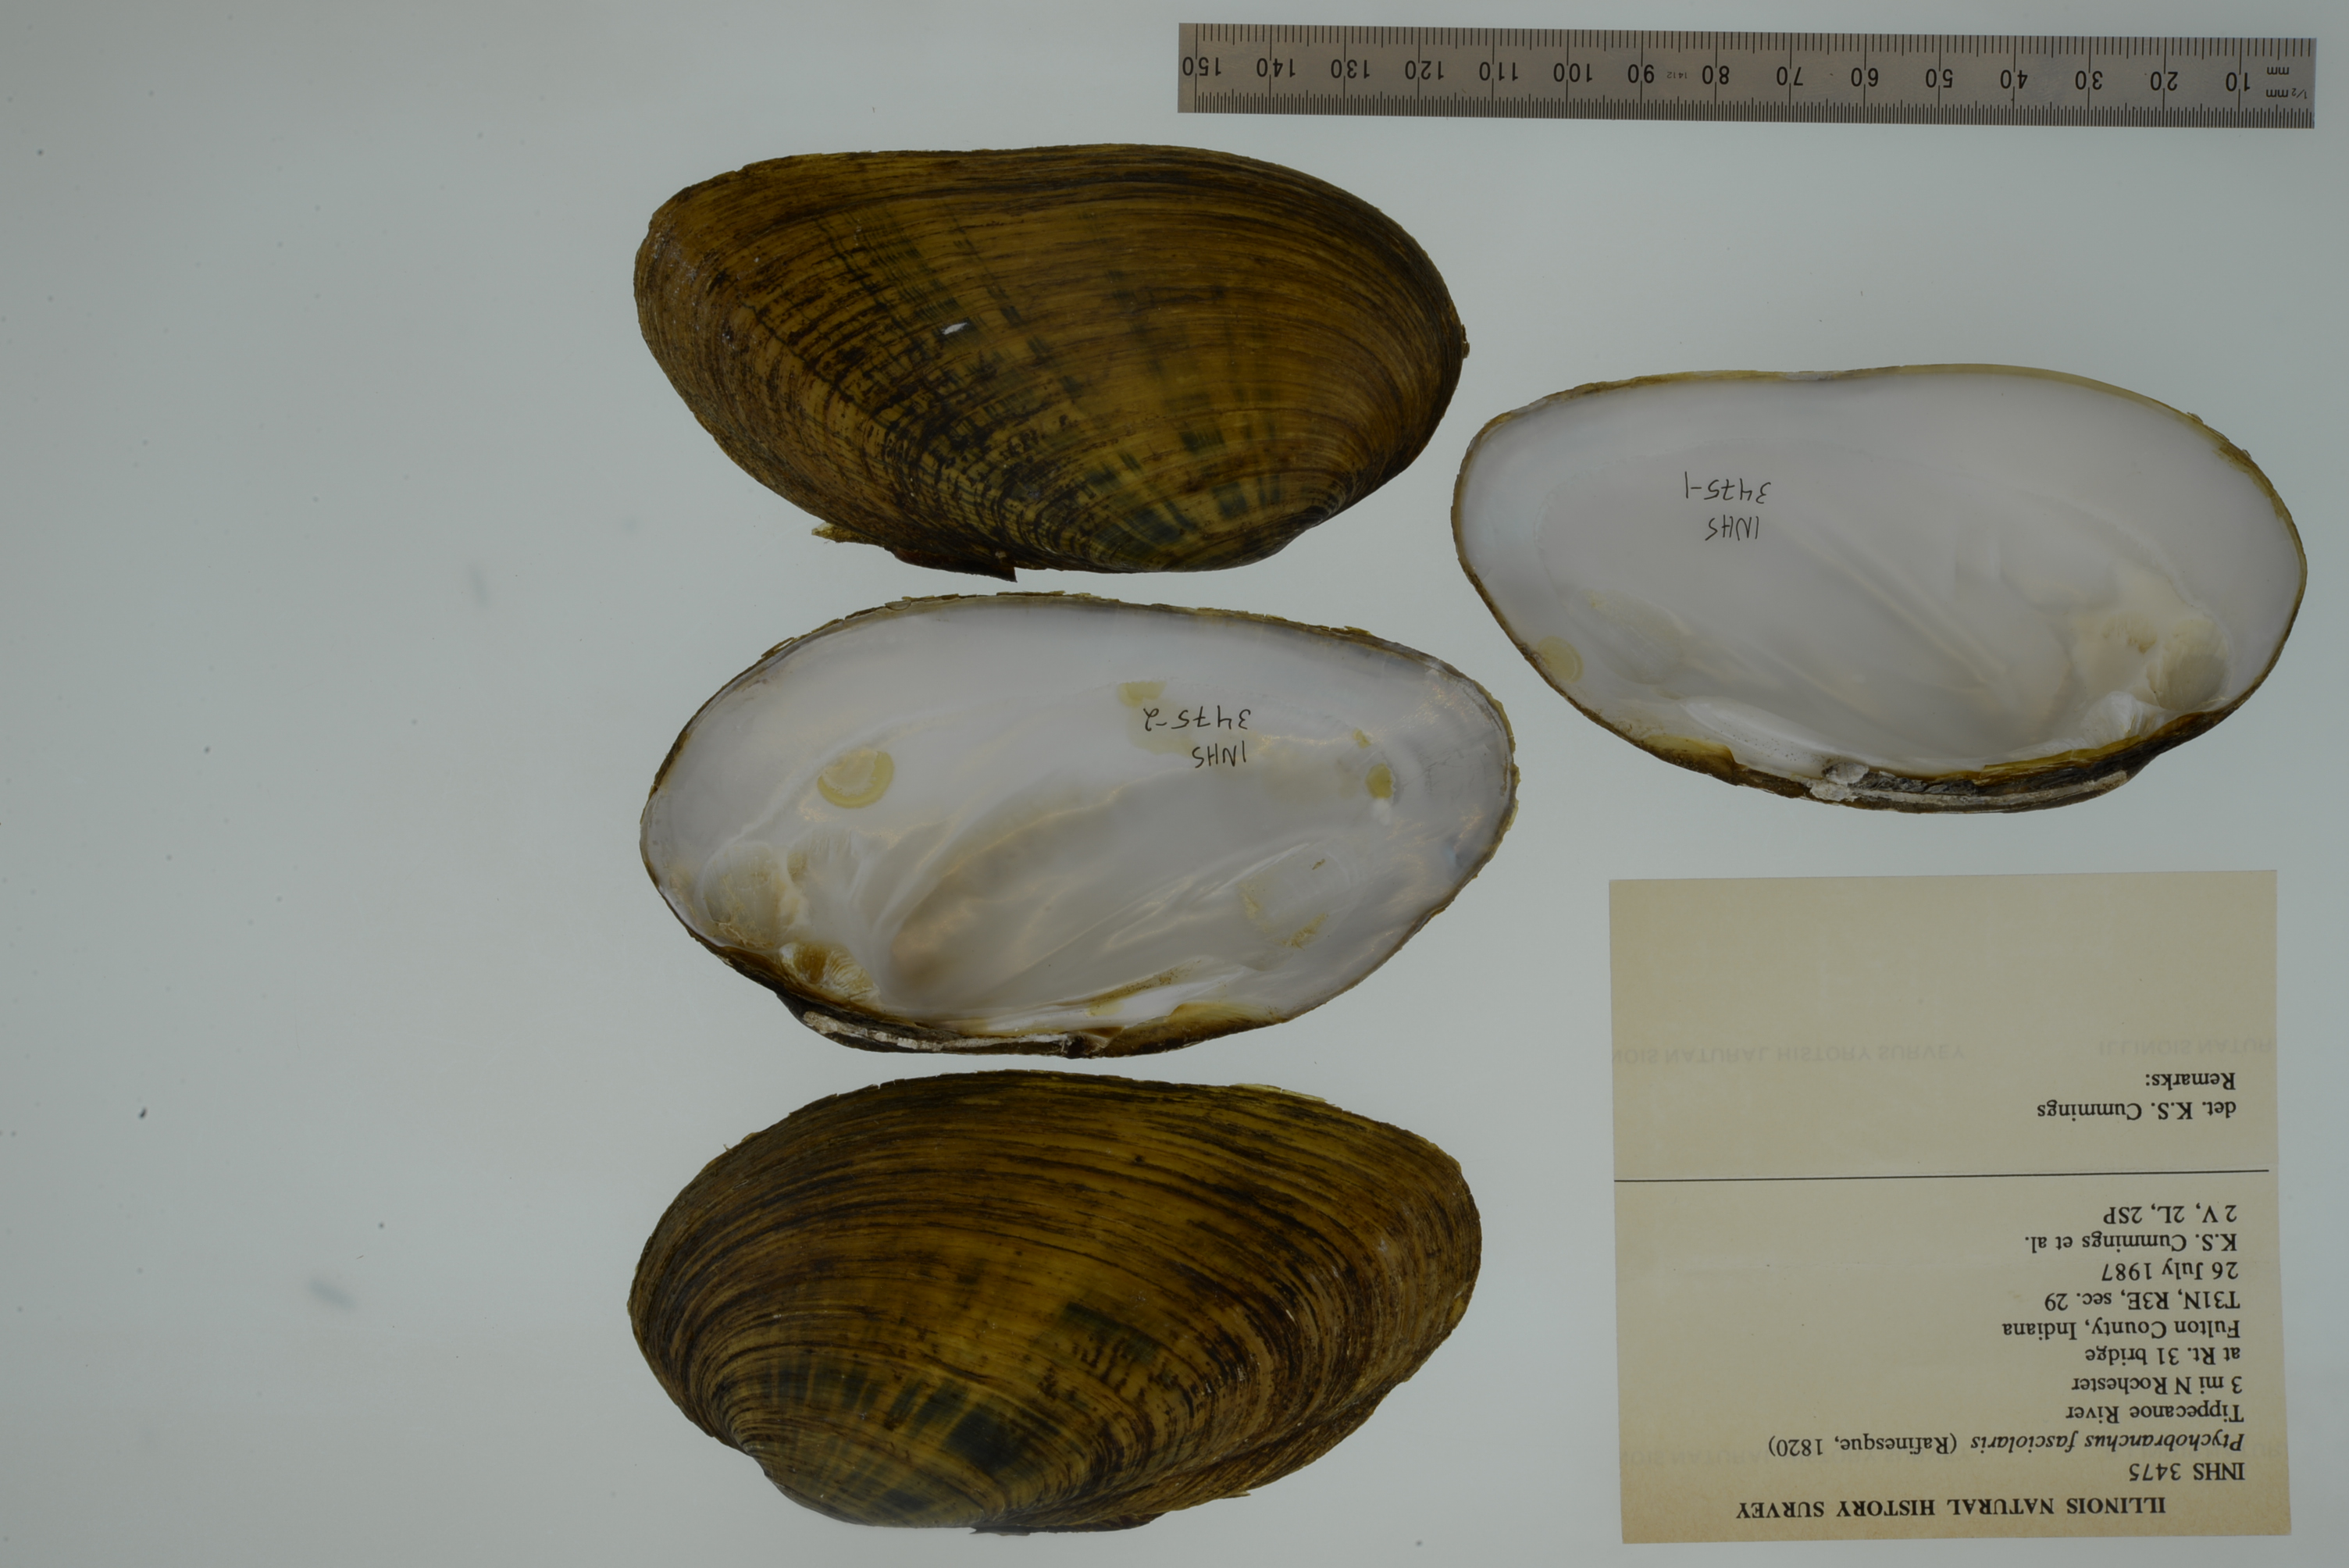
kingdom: Animalia
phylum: Mollusca
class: Bivalvia
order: Unionida
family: Unionidae
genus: Ptychobranchus
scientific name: Ptychobranchus fasciolaris
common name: Kidneyshell
